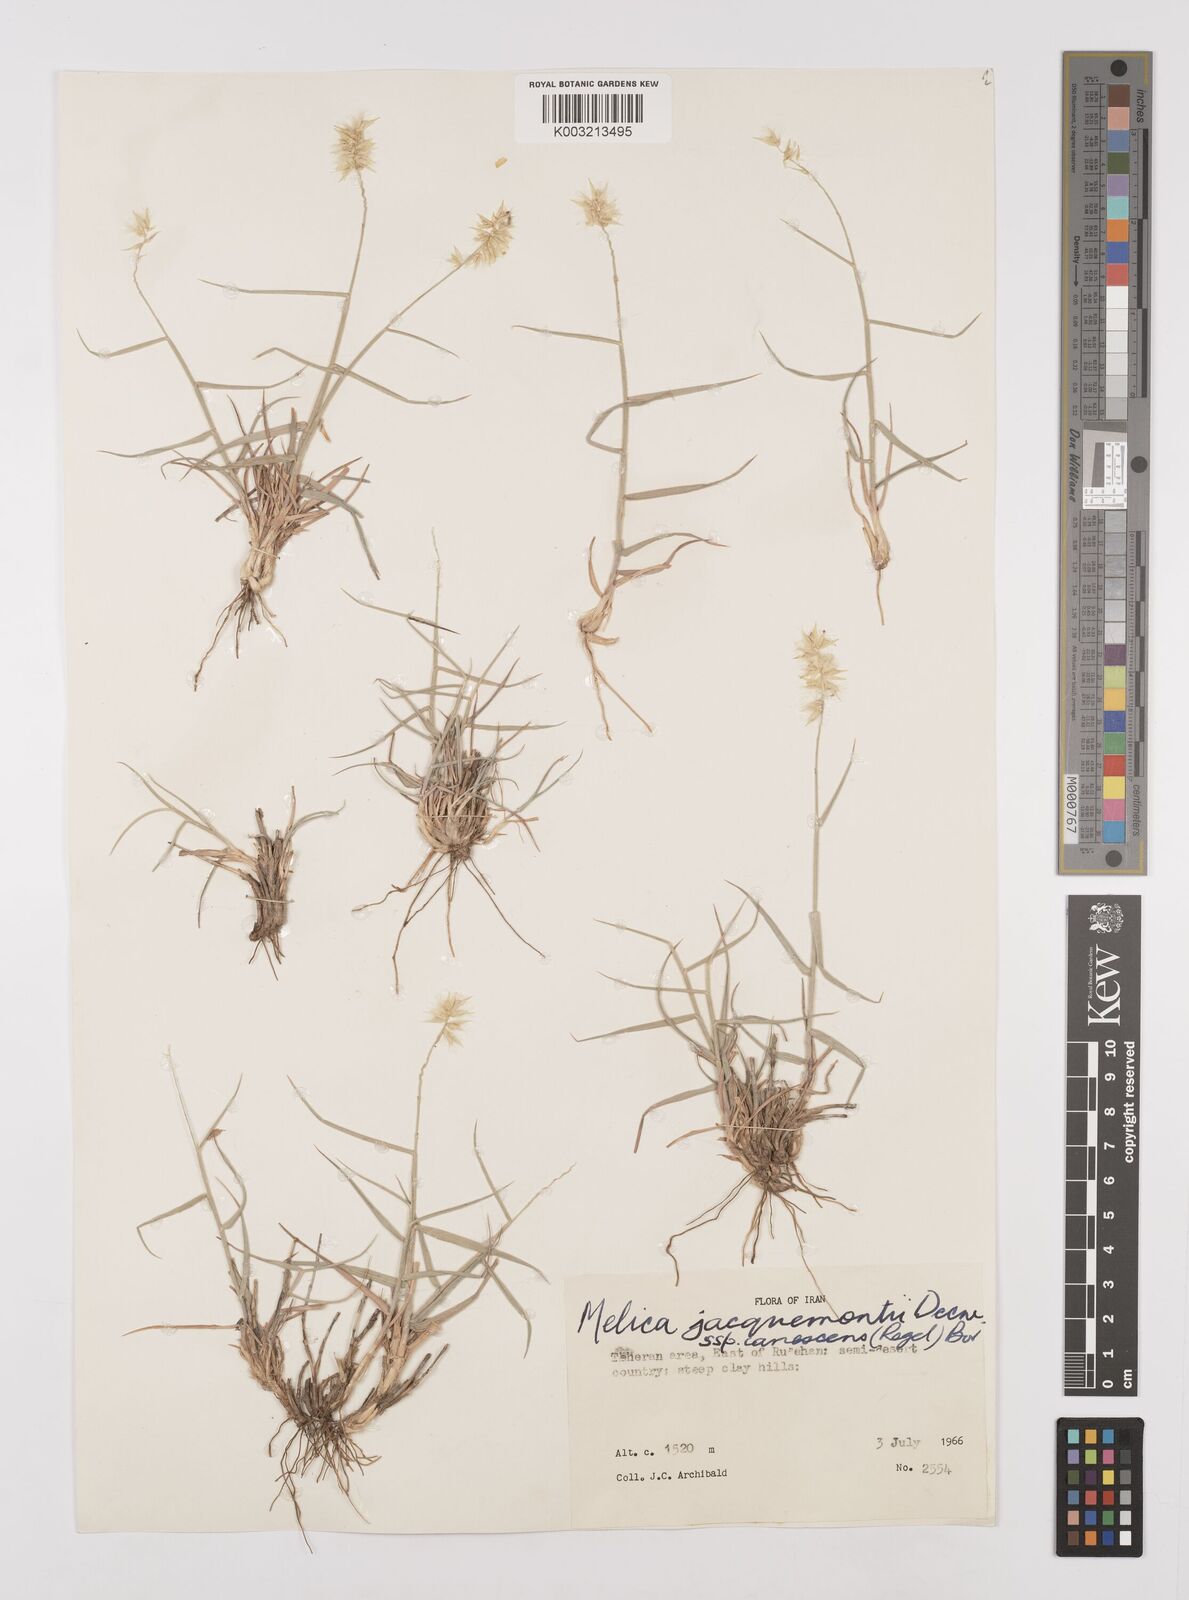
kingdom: Plantae
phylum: Tracheophyta
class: Liliopsida
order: Poales
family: Poaceae
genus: Melica
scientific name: Melica persica
